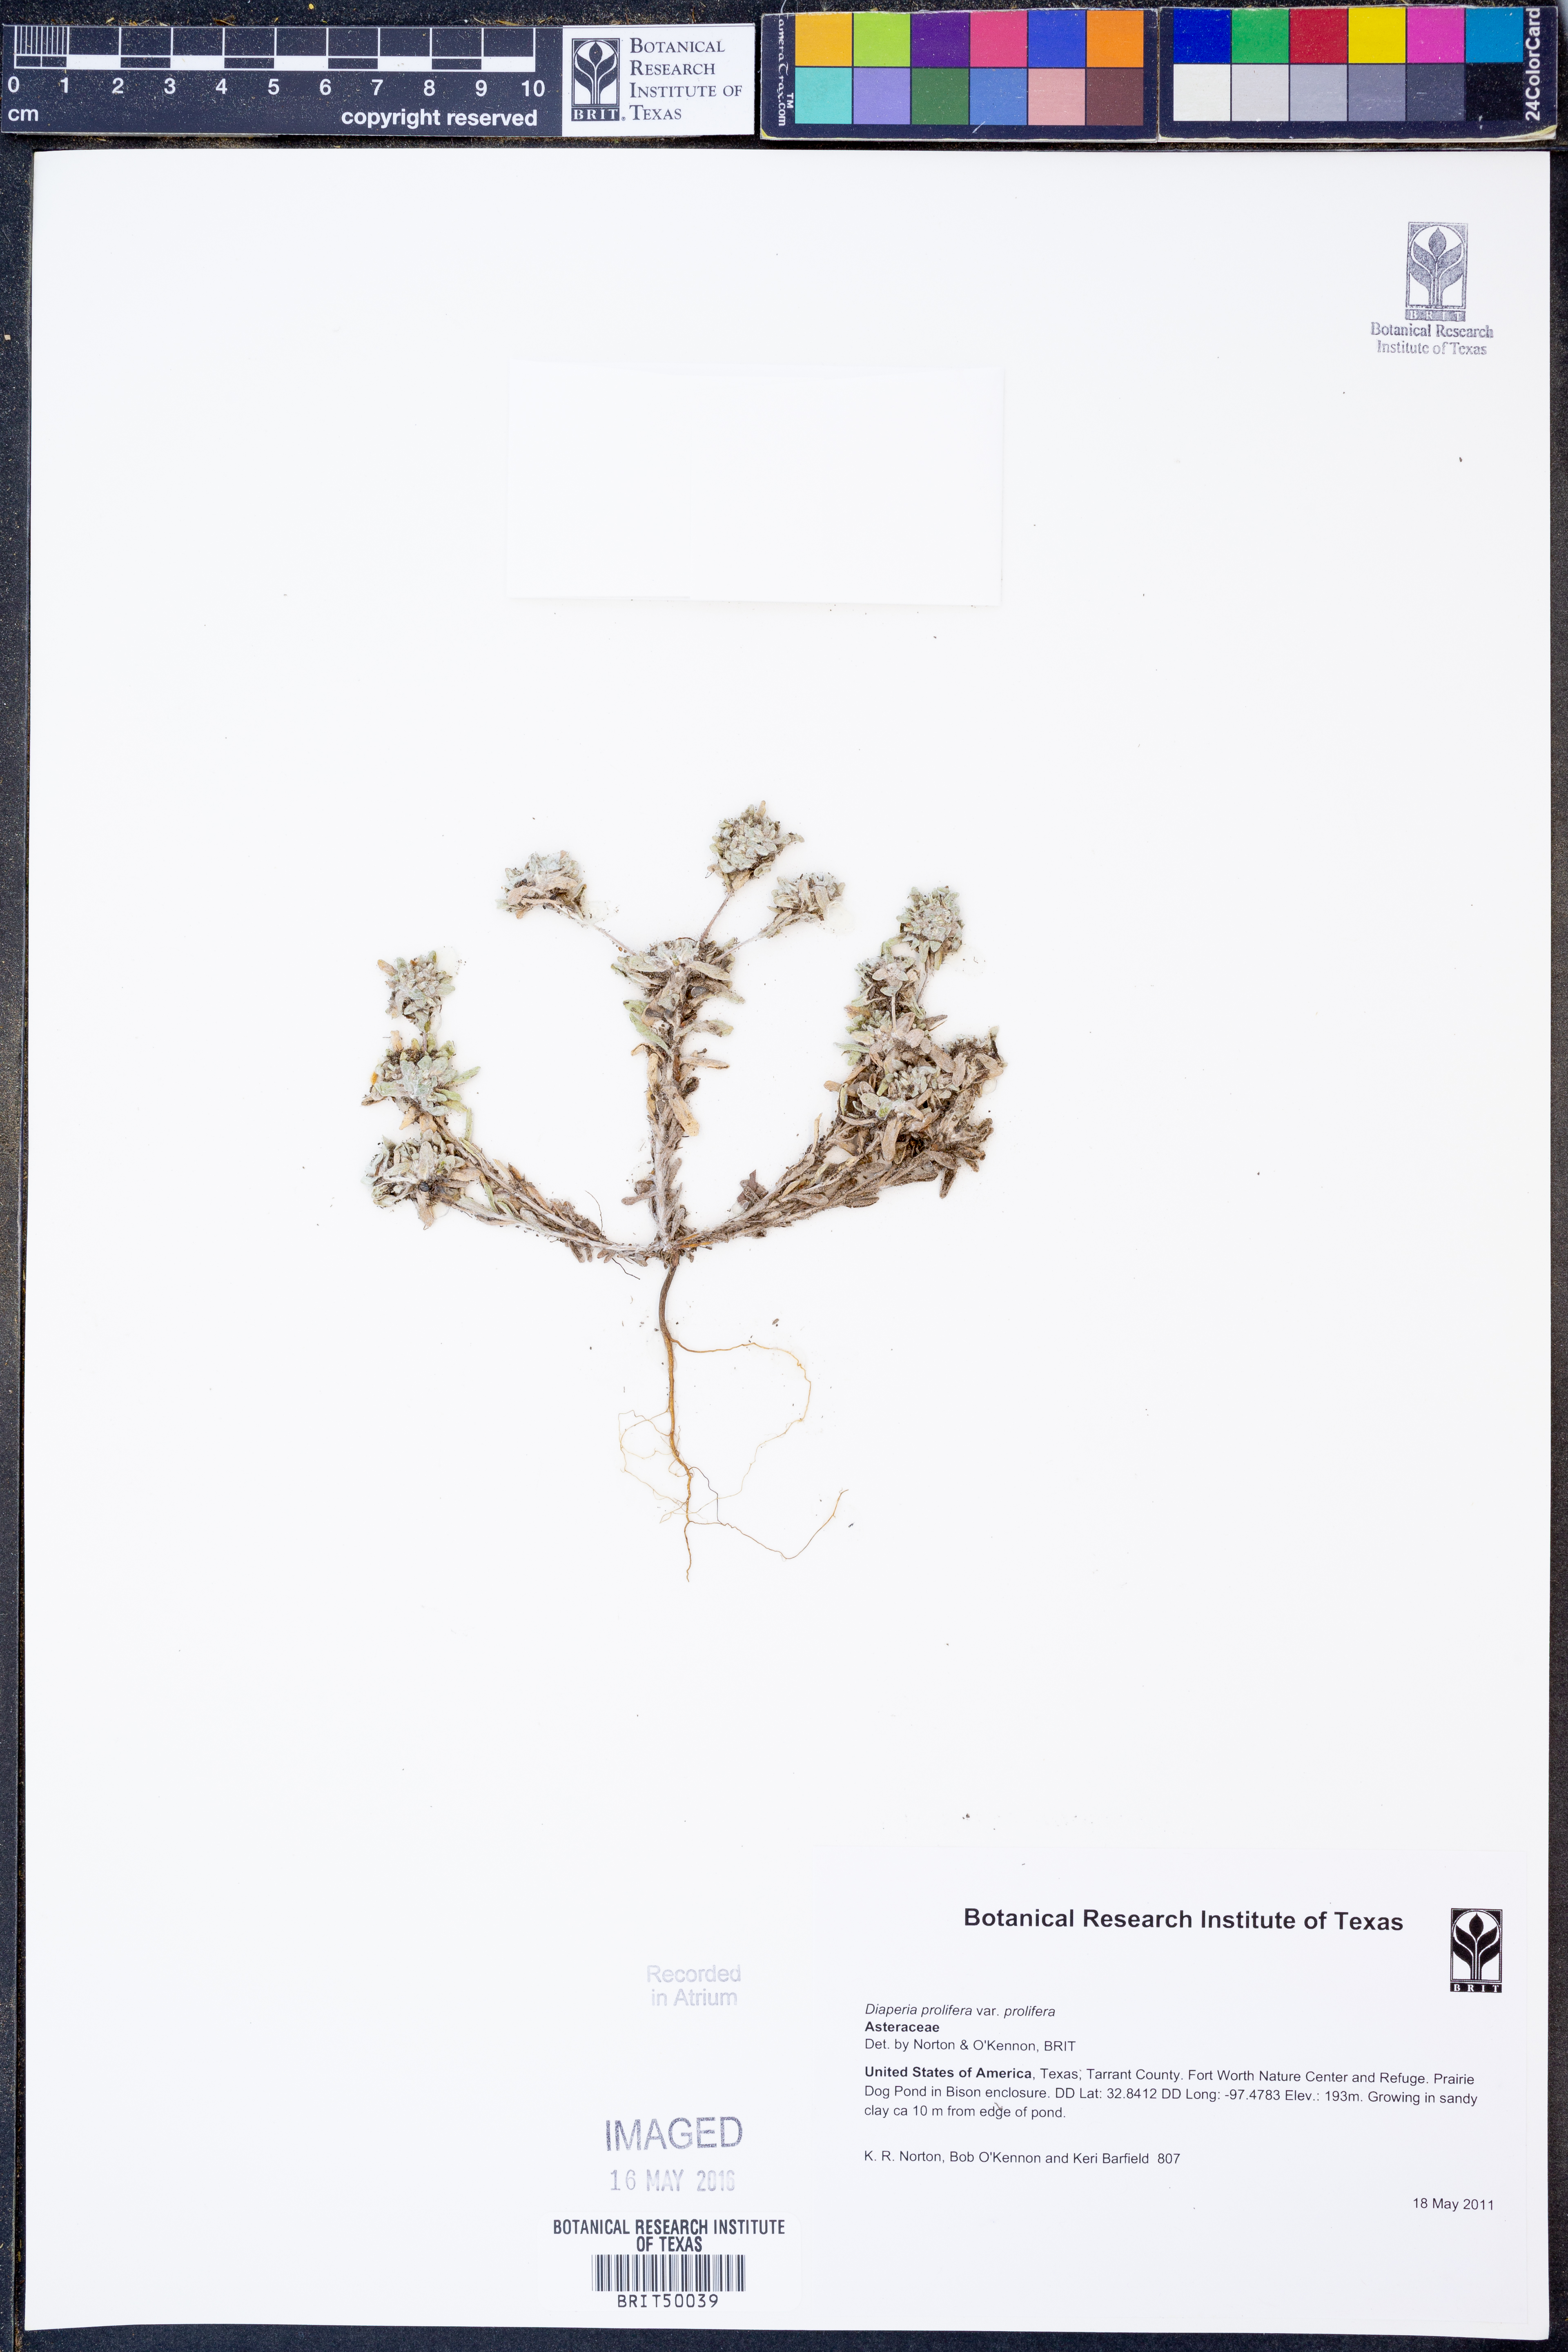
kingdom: Plantae
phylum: Tracheophyta
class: Magnoliopsida
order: Asterales
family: Asteraceae
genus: Diaperia
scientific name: Diaperia prolifera
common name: Big-head rabbit-tobacco
